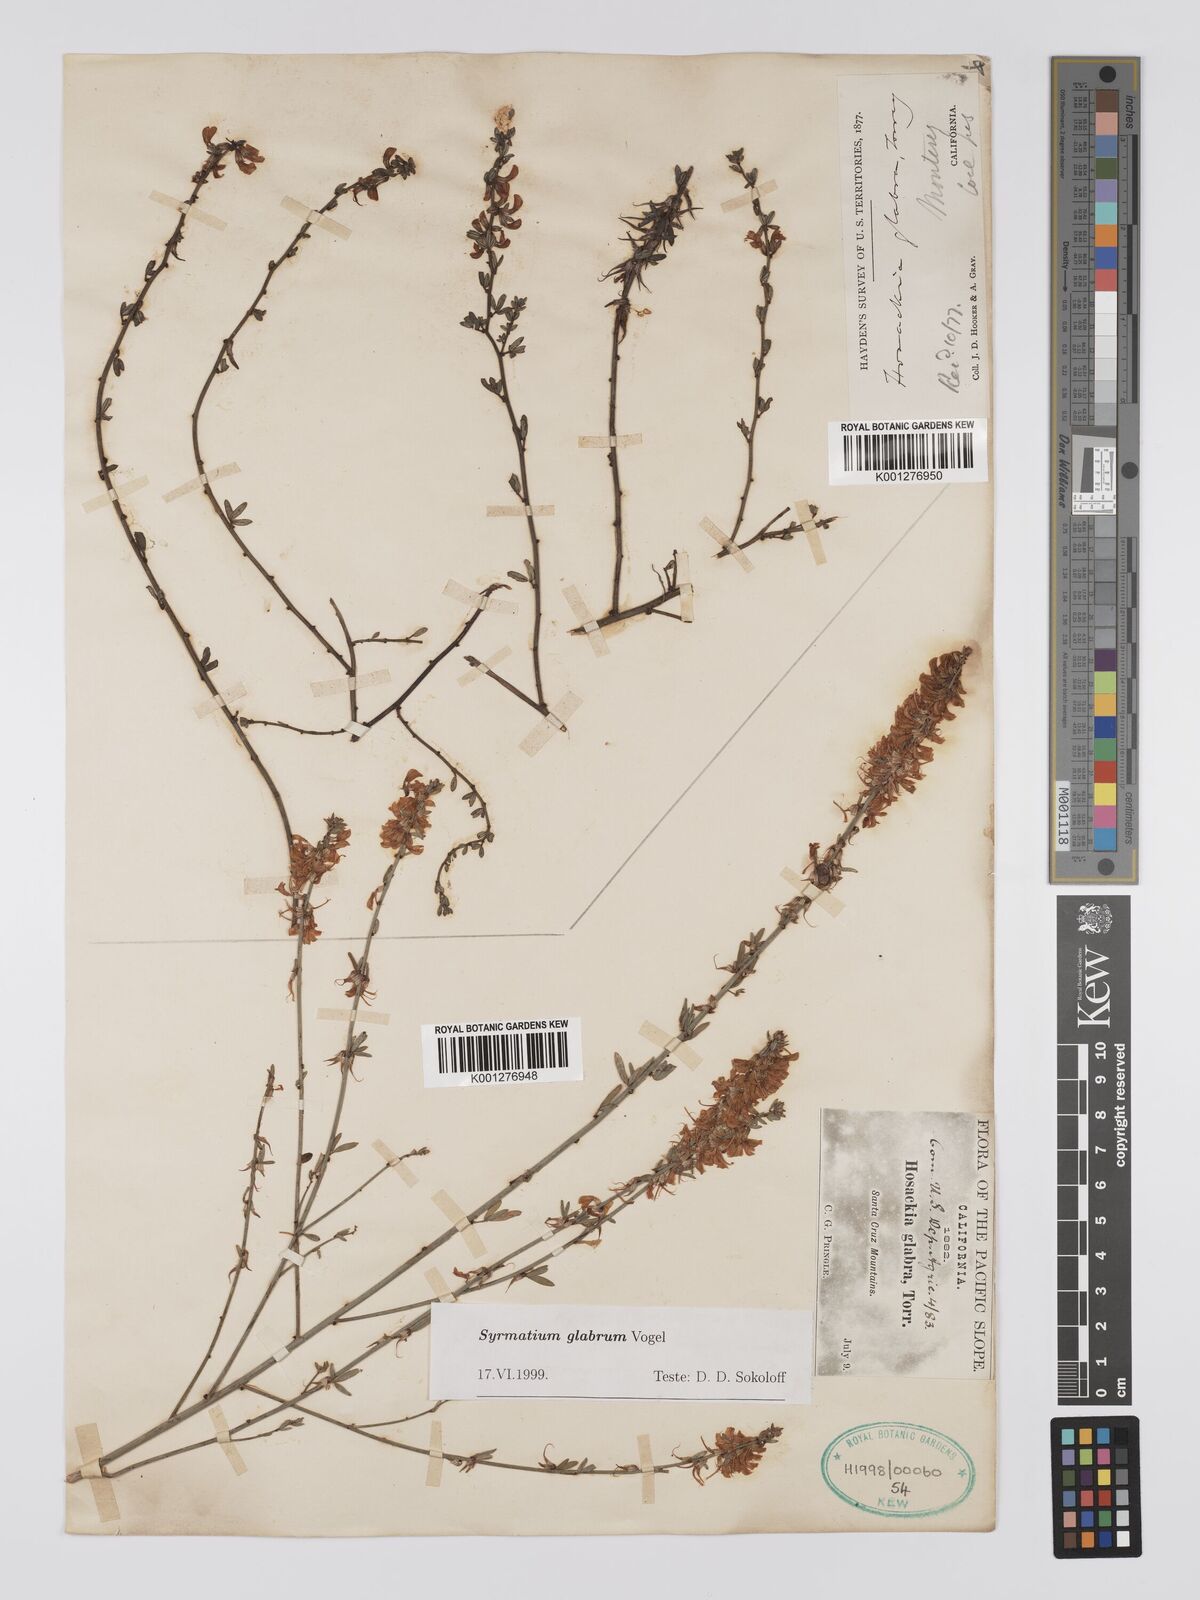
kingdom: Plantae
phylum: Tracheophyta
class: Magnoliopsida
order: Fabales
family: Fabaceae
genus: Acmispon
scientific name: Acmispon glaber
